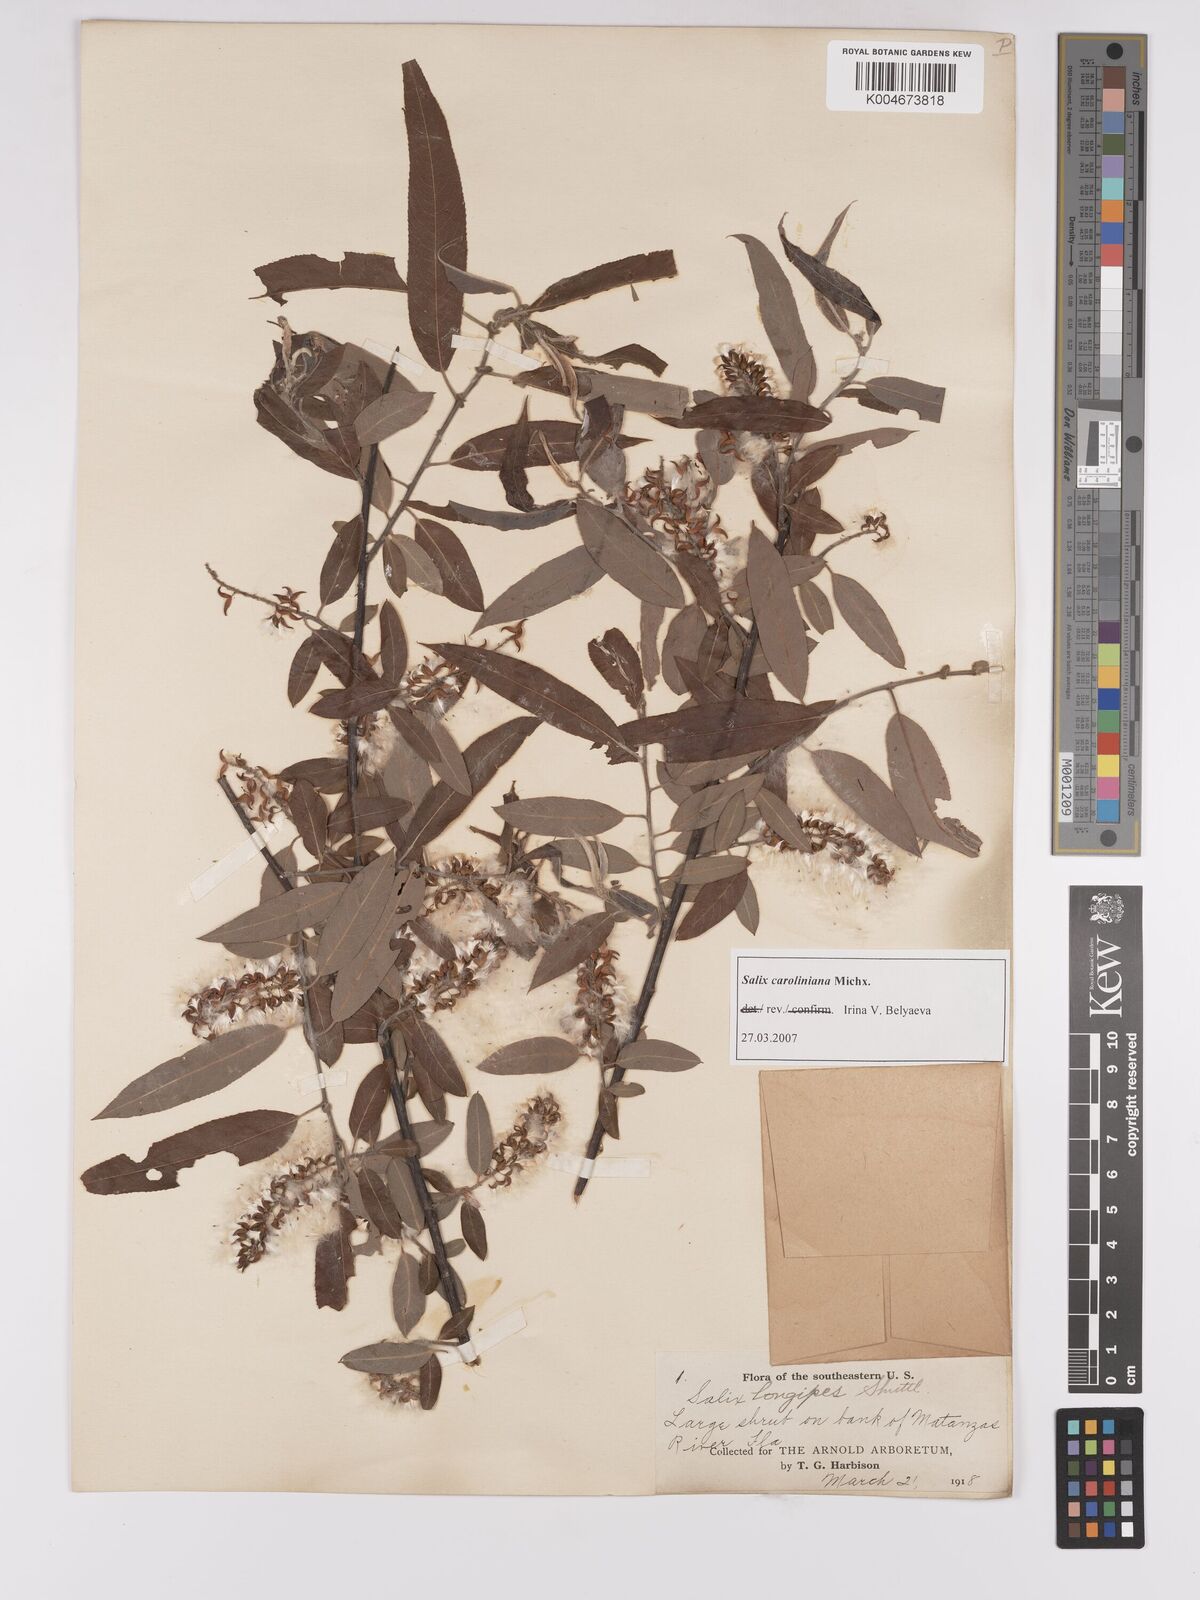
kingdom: Plantae
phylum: Tracheophyta
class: Magnoliopsida
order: Malpighiales
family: Salicaceae
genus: Salix
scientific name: Salix caroliniana
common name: Carolina willow
